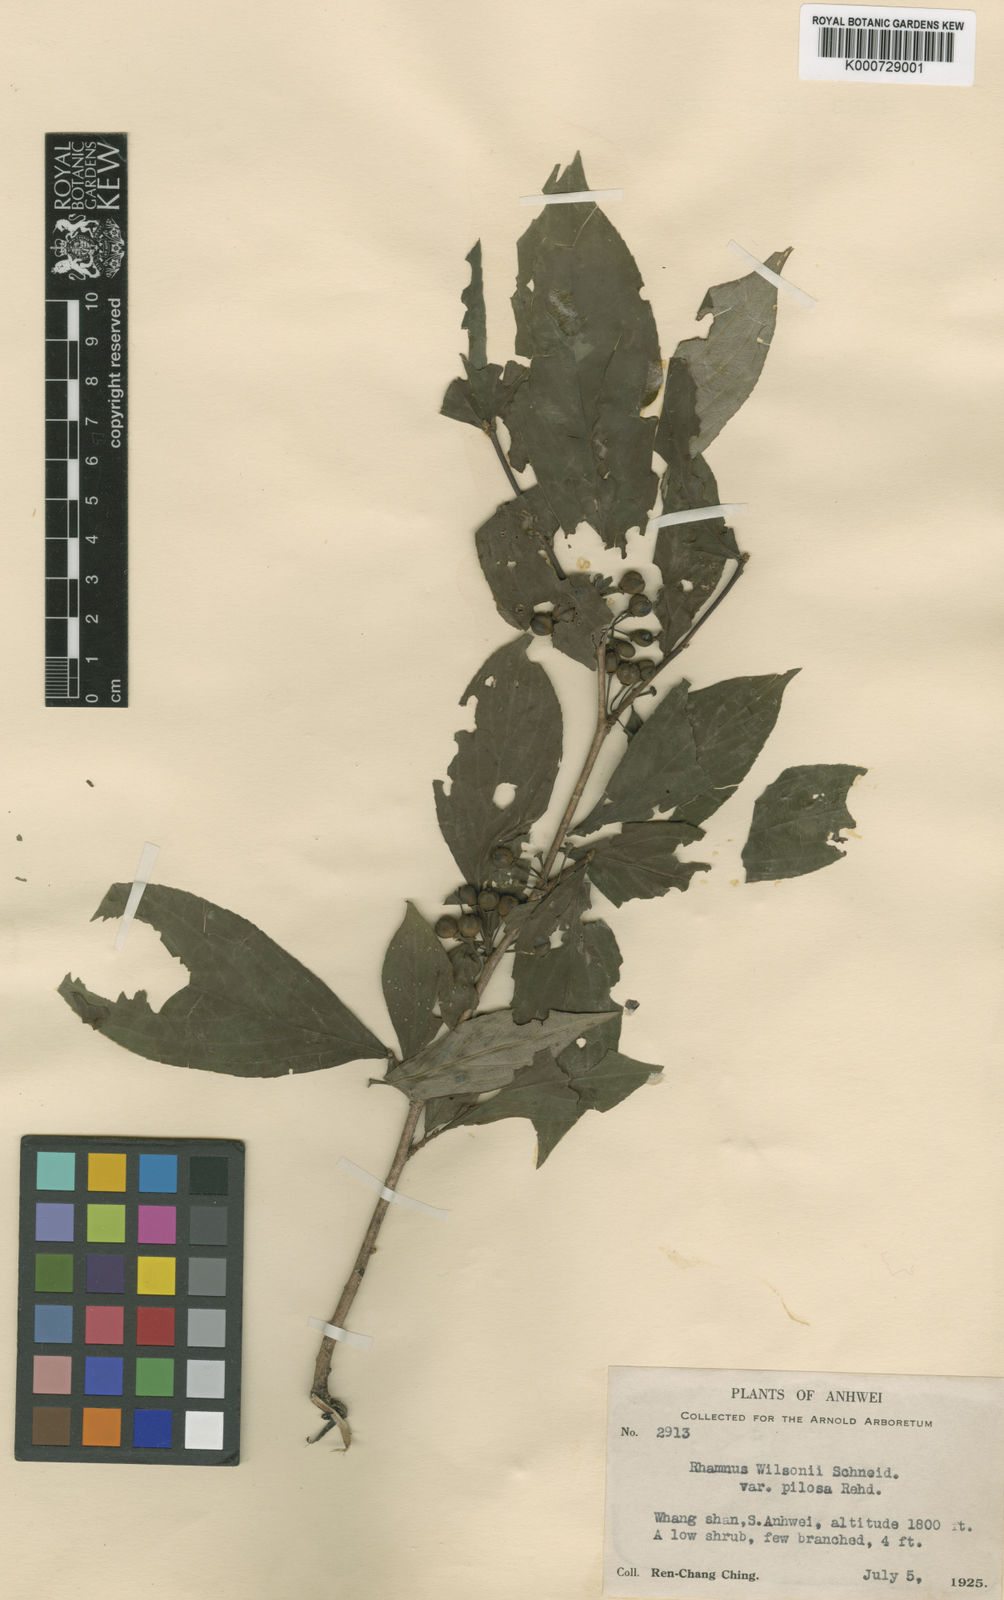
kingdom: Plantae
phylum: Tracheophyta
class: Magnoliopsida
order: Rosales
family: Rhamnaceae
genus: Rhamnus
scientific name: Rhamnus wilsonii
